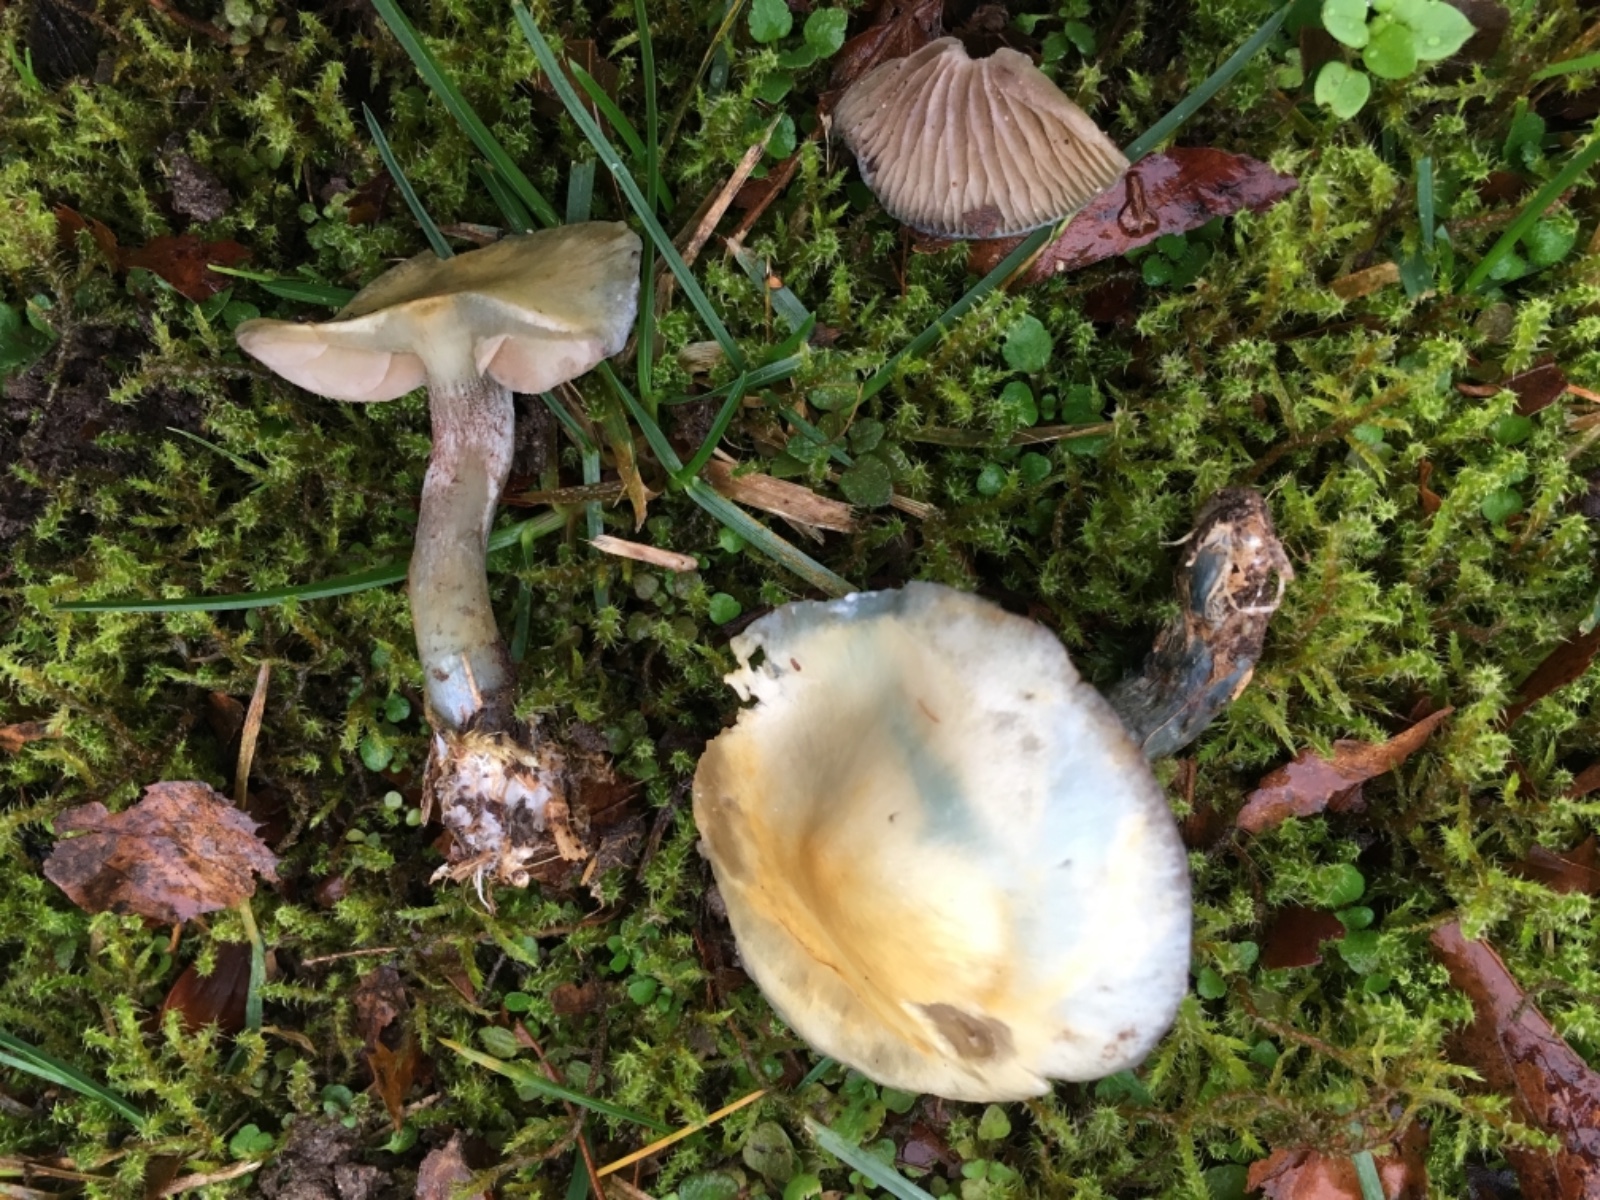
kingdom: Fungi
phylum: Basidiomycota
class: Agaricomycetes
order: Agaricales
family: Strophariaceae
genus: Stropharia
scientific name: Stropharia cyanea
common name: blågrøn bredblad
